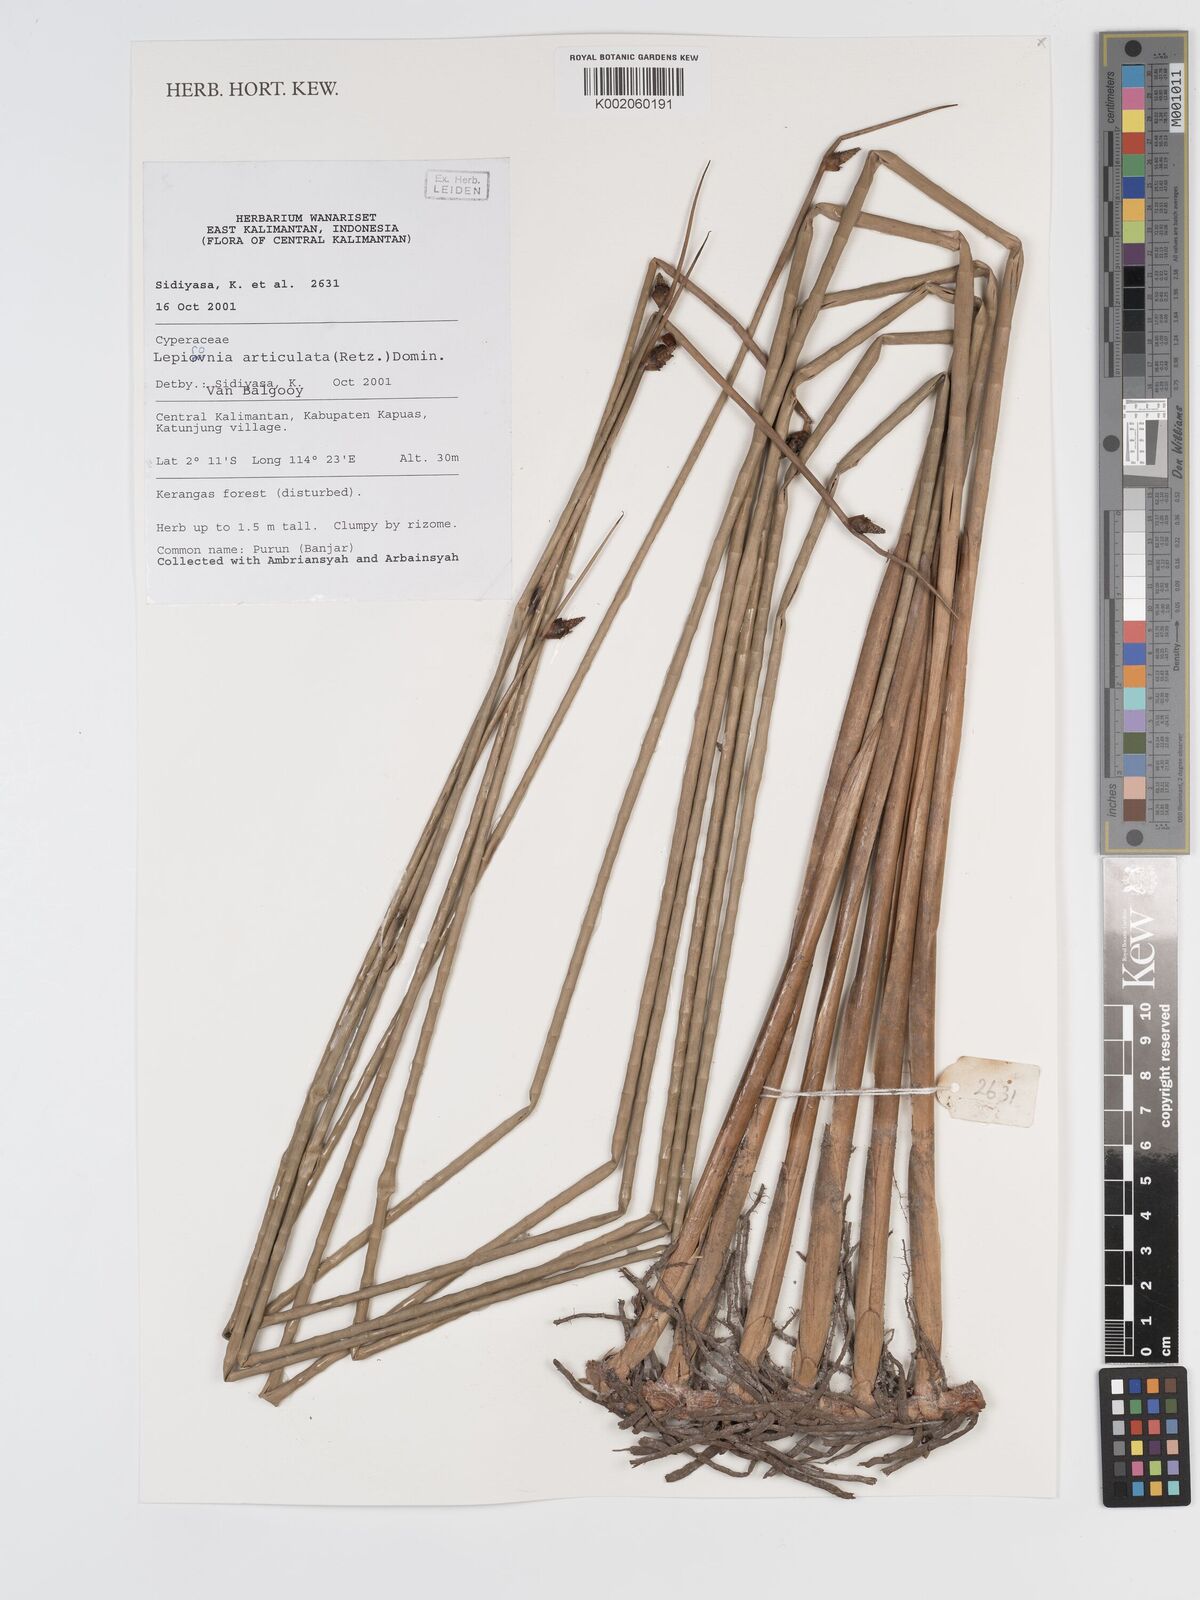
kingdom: Plantae
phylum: Tracheophyta
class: Liliopsida
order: Poales
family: Cyperaceae
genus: Lepironia
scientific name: Lepironia articulata
